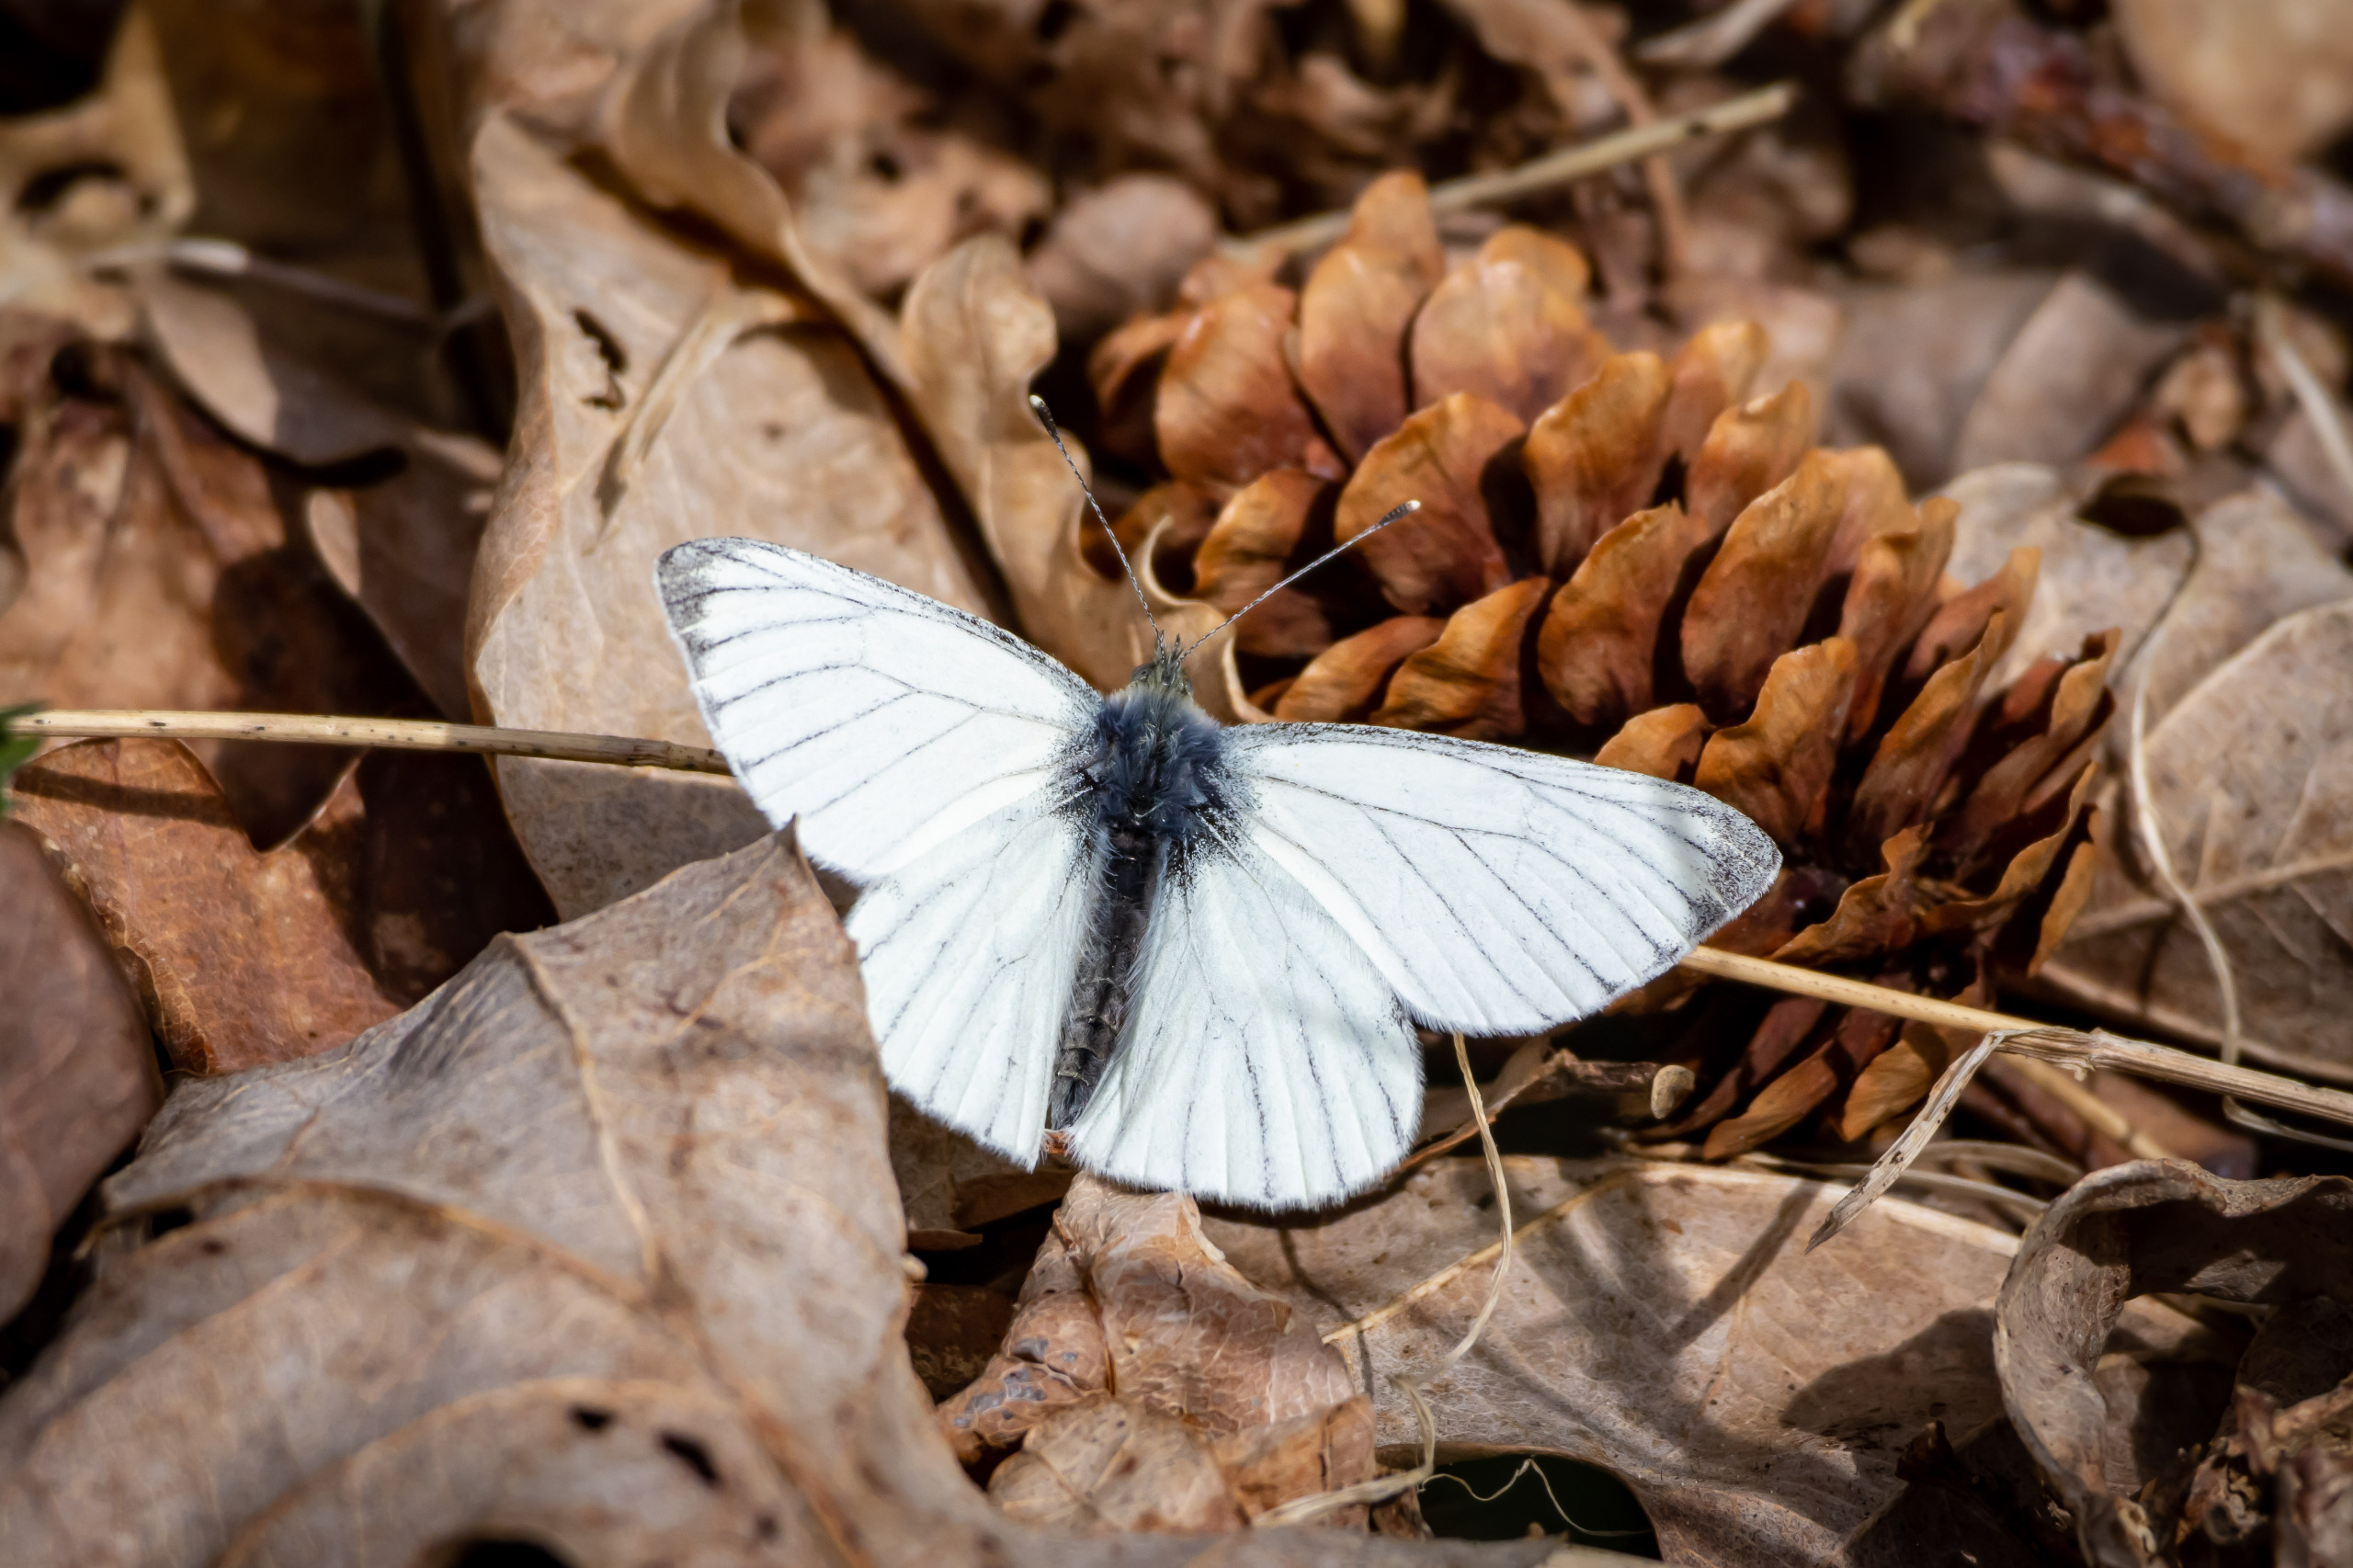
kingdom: Animalia
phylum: Arthropoda
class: Insecta
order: Lepidoptera
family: Pieridae
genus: Pieris
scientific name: Pieris napi
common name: Grønåret kålsommerfugl
